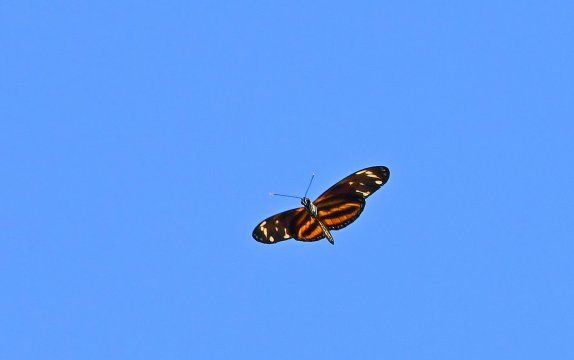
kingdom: Animalia
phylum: Arthropoda
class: Insecta
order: Lepidoptera
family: Nymphalidae
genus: Eueides
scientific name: Eueides isabella
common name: Isabella's Heliconian
